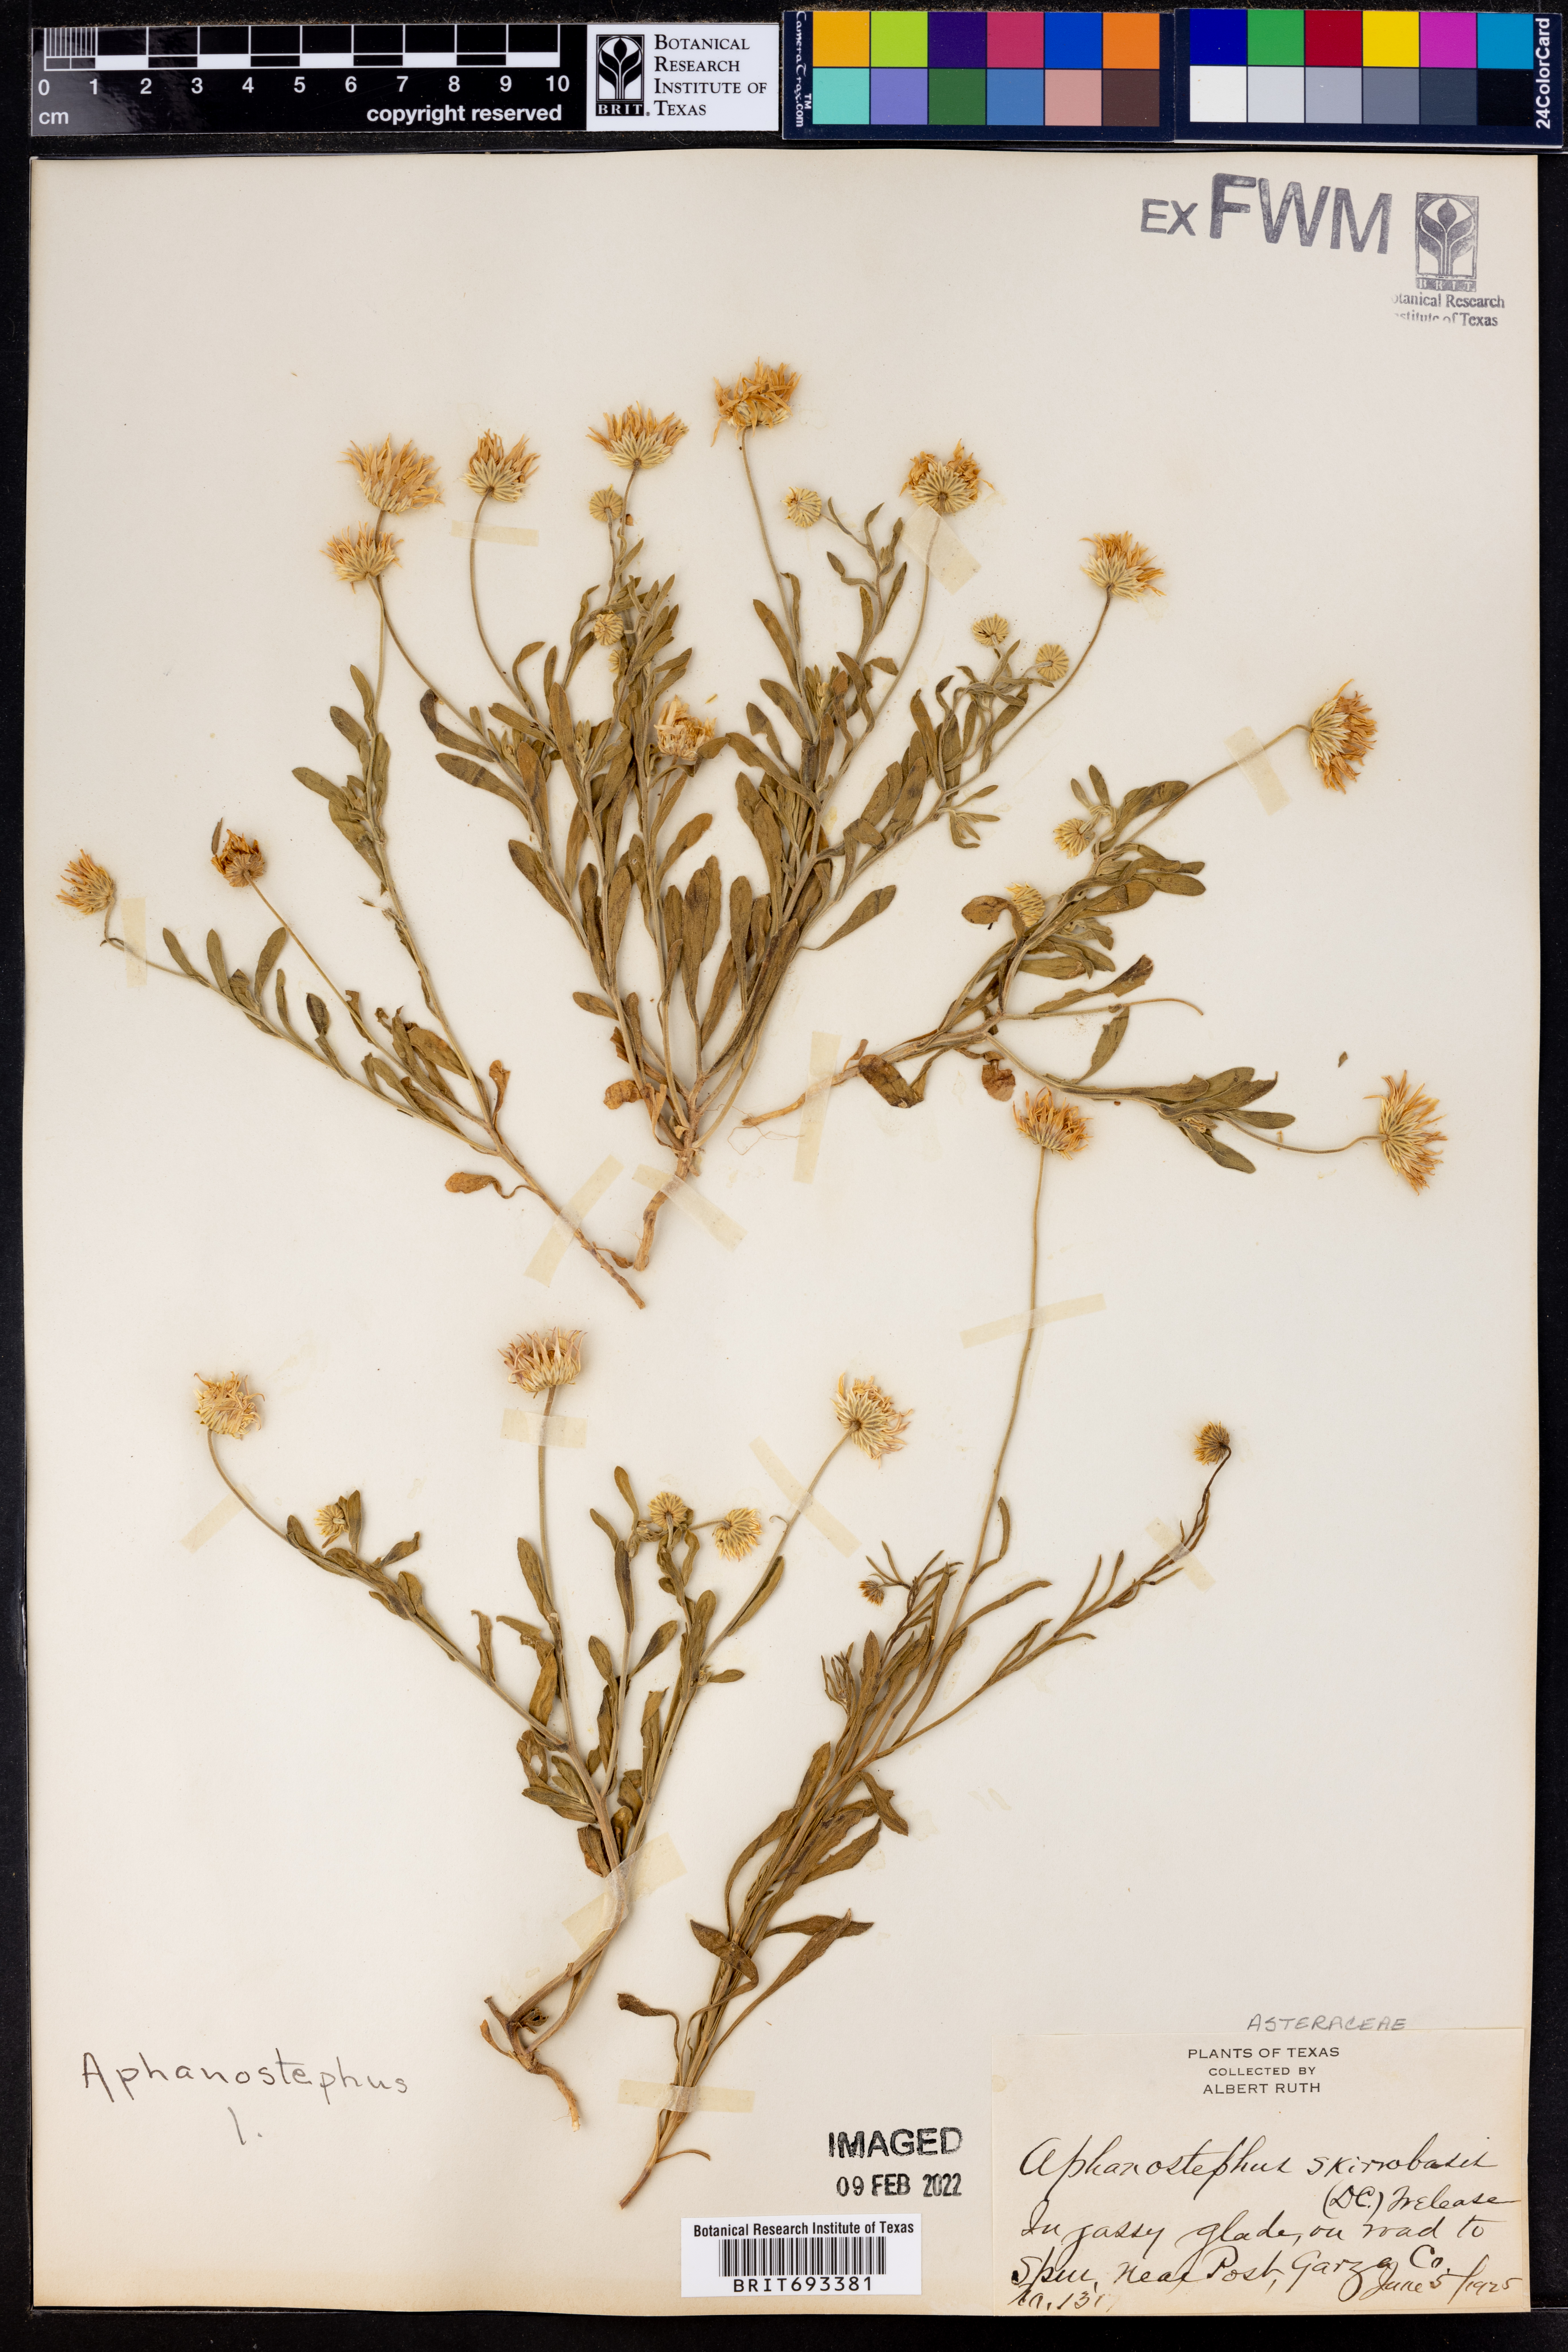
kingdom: Plantae
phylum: Tracheophyta
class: Magnoliopsida
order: Asterales
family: Asteraceae
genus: Aphanostephus
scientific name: Aphanostephus skirrhobasis
